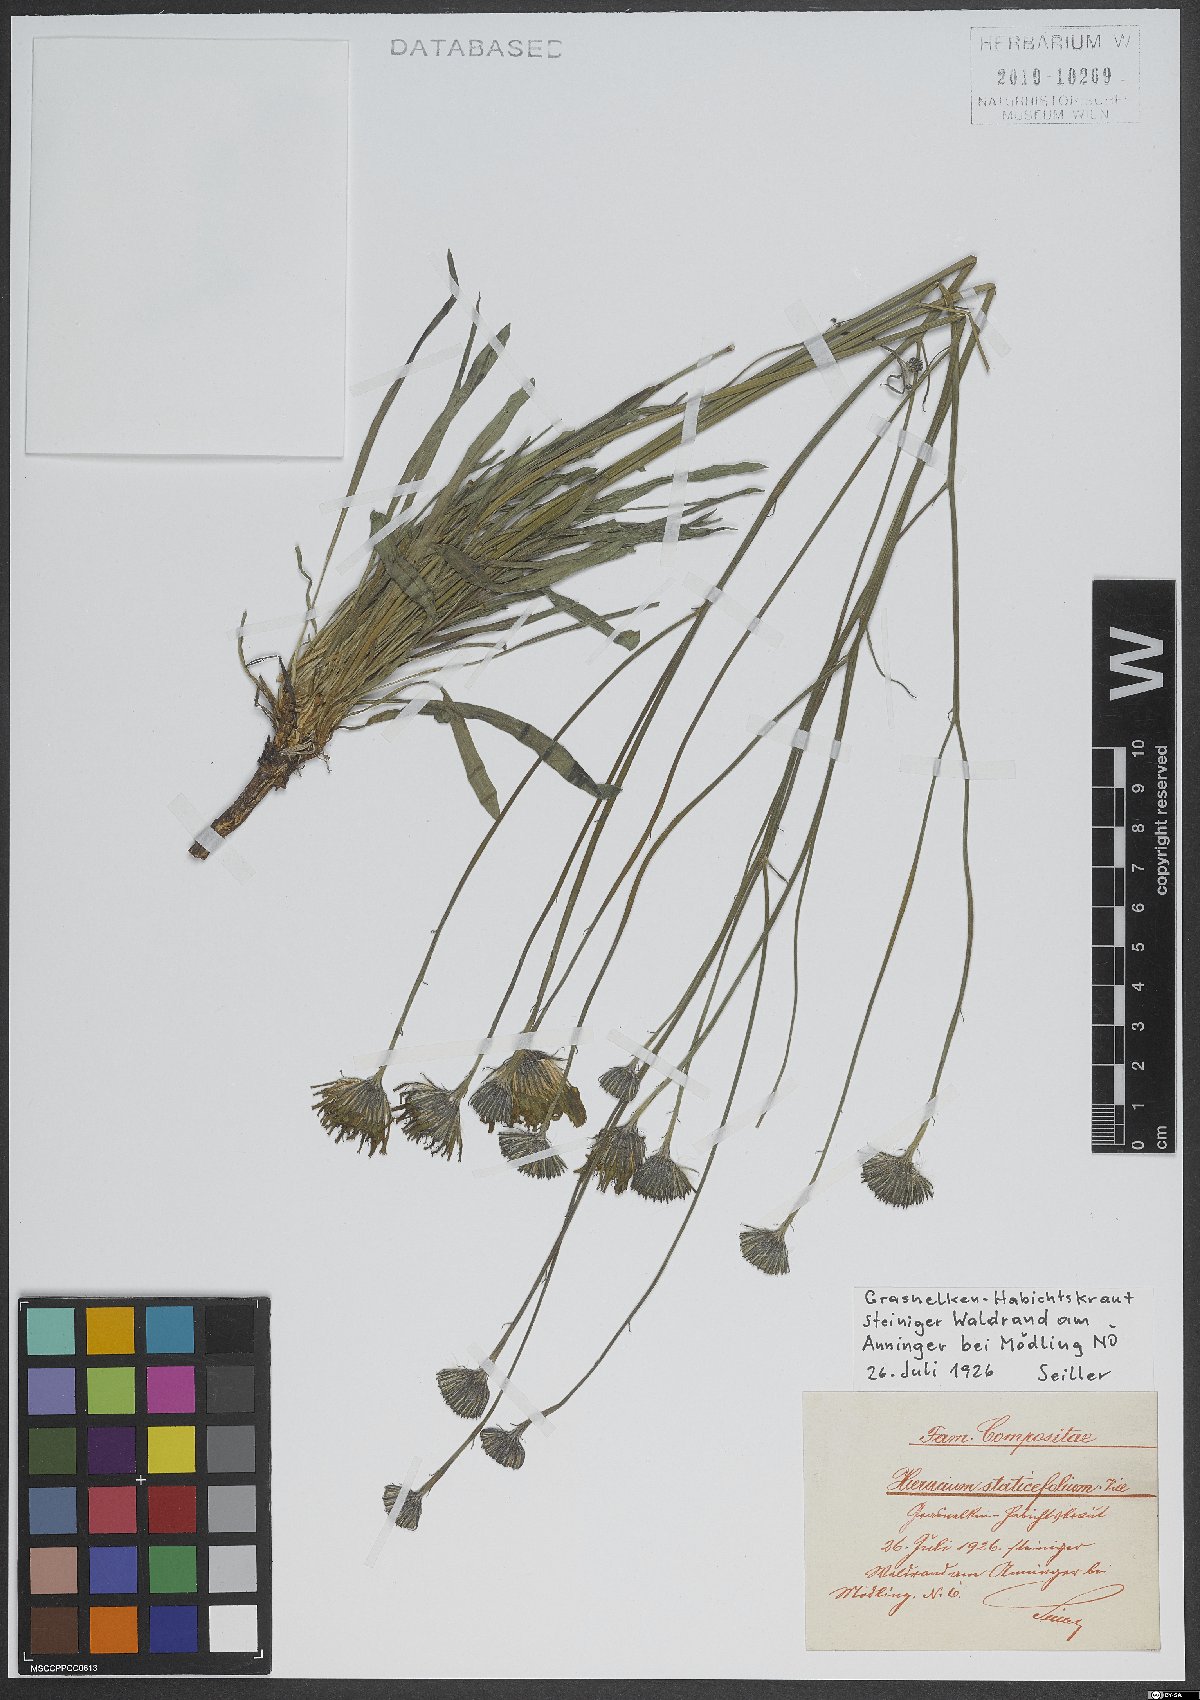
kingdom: Plantae
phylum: Tracheophyta
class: Magnoliopsida
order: Asterales
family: Asteraceae
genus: Tolpis
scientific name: Tolpis staticifolia
